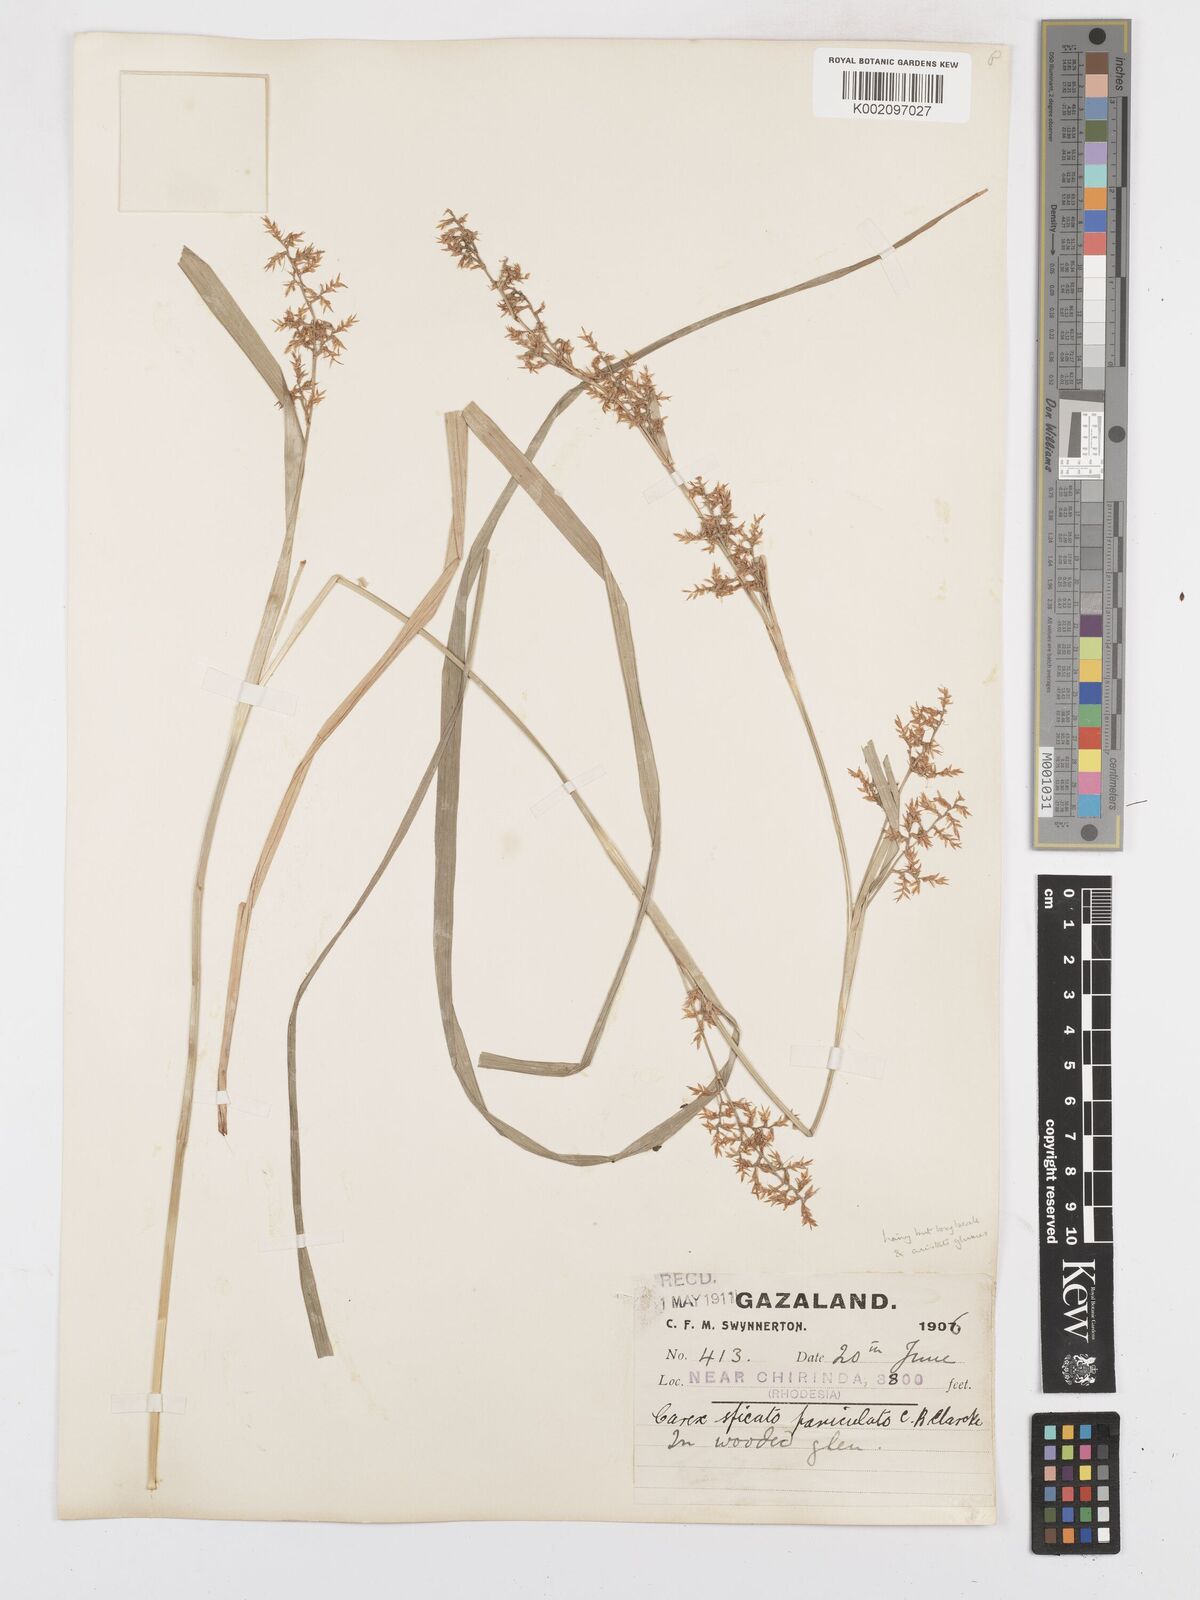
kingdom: Plantae
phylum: Tracheophyta
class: Liliopsida
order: Poales
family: Cyperaceae
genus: Carex
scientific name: Carex spicatopaniculata
